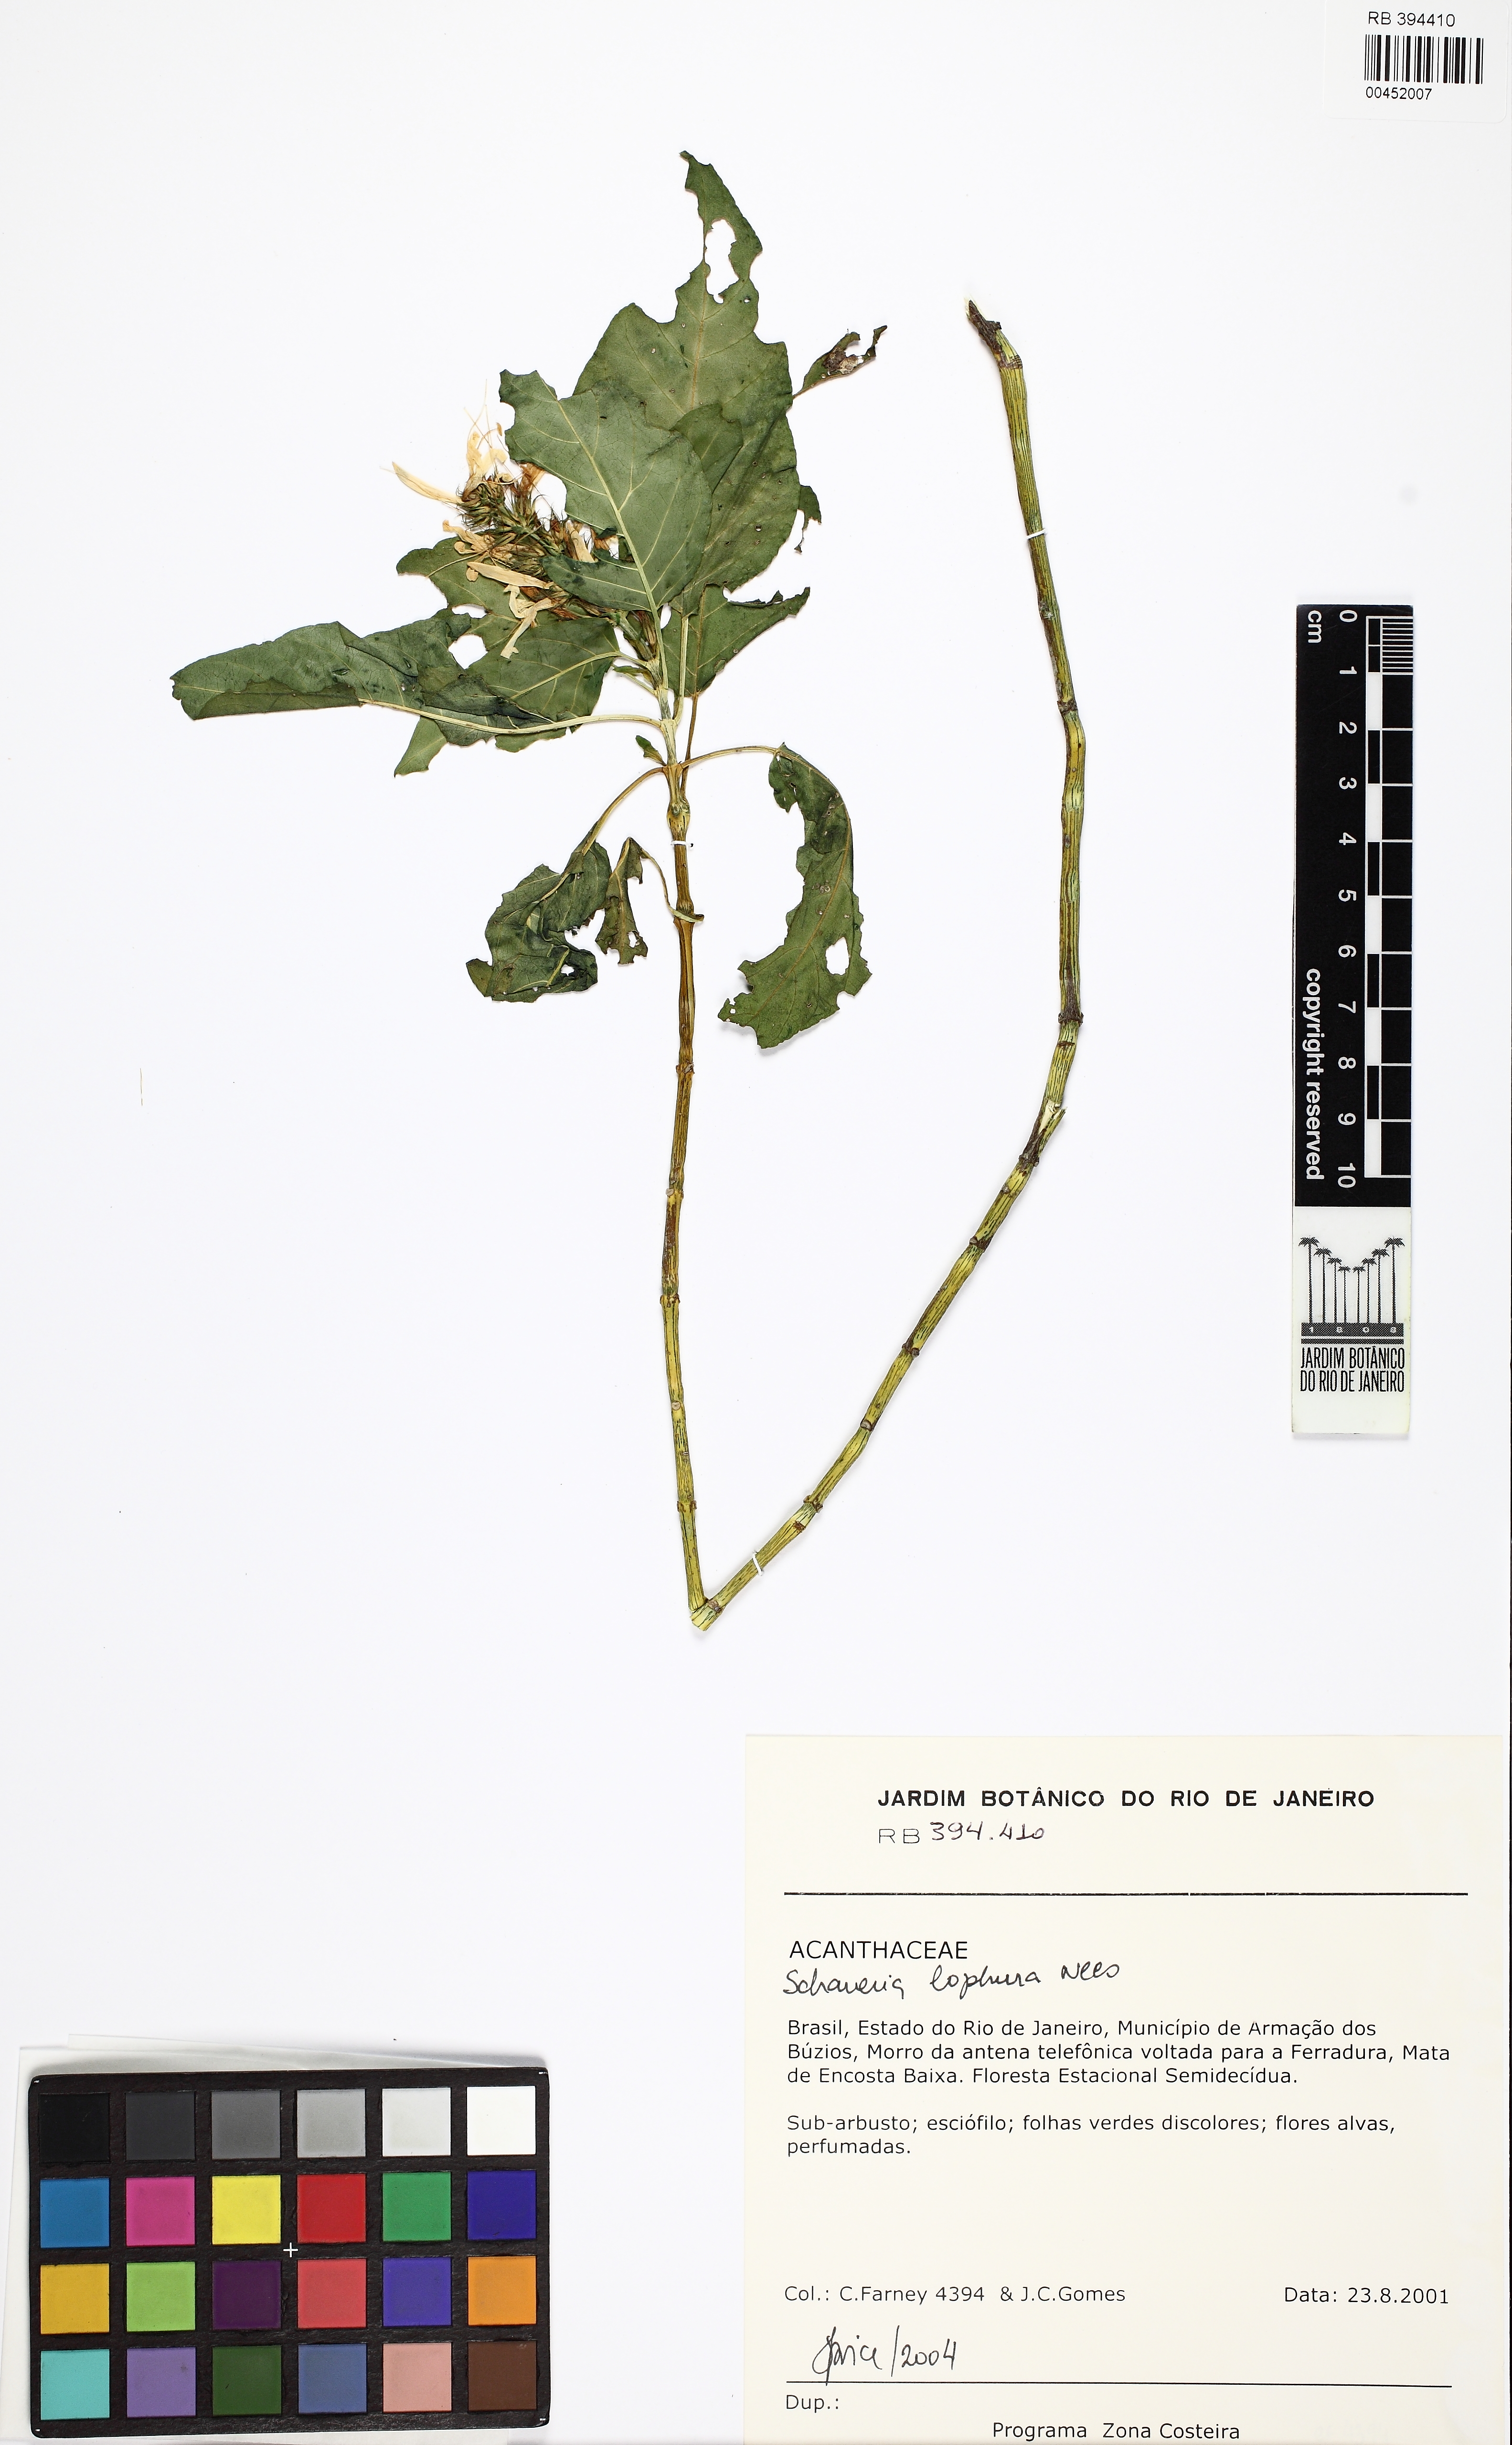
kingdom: Plantae
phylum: Tracheophyta
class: Magnoliopsida
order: Lamiales
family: Acanthaceae
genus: Schaueria
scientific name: Schaueria litoralis
